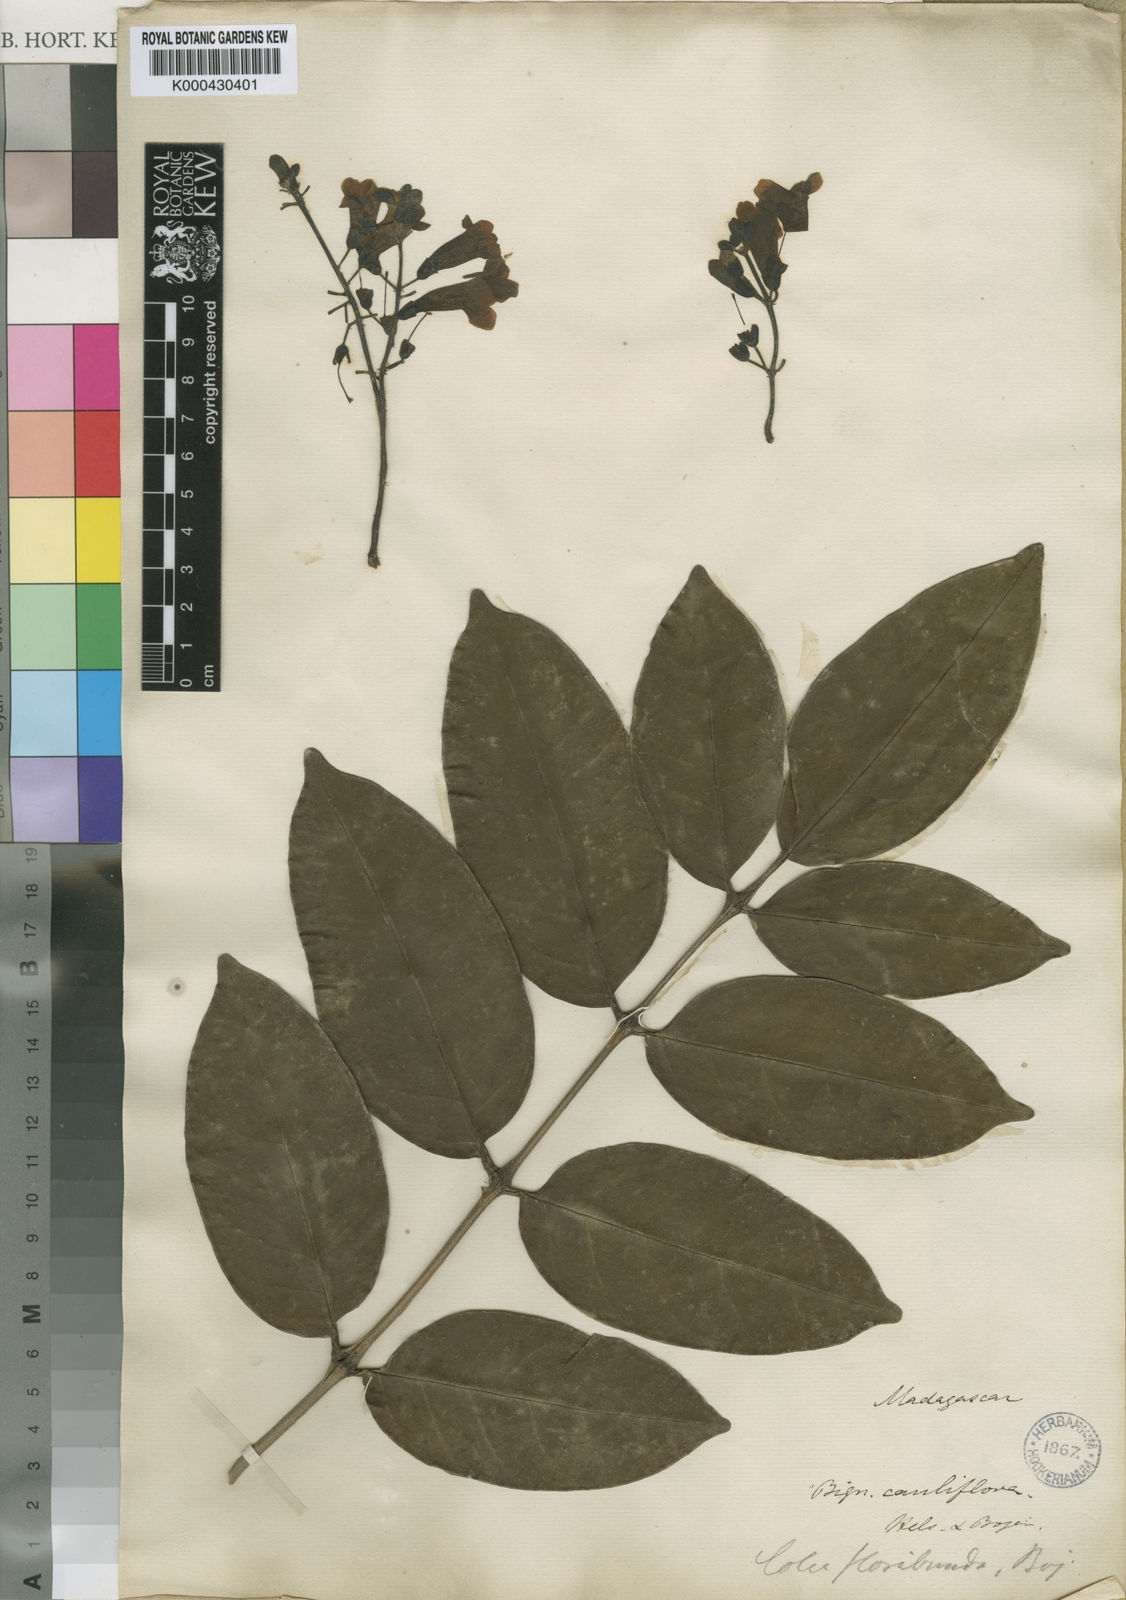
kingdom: Plantae
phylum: Tracheophyta
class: Magnoliopsida
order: Lamiales
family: Bignoniaceae
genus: Colea
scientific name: Colea floribunda
